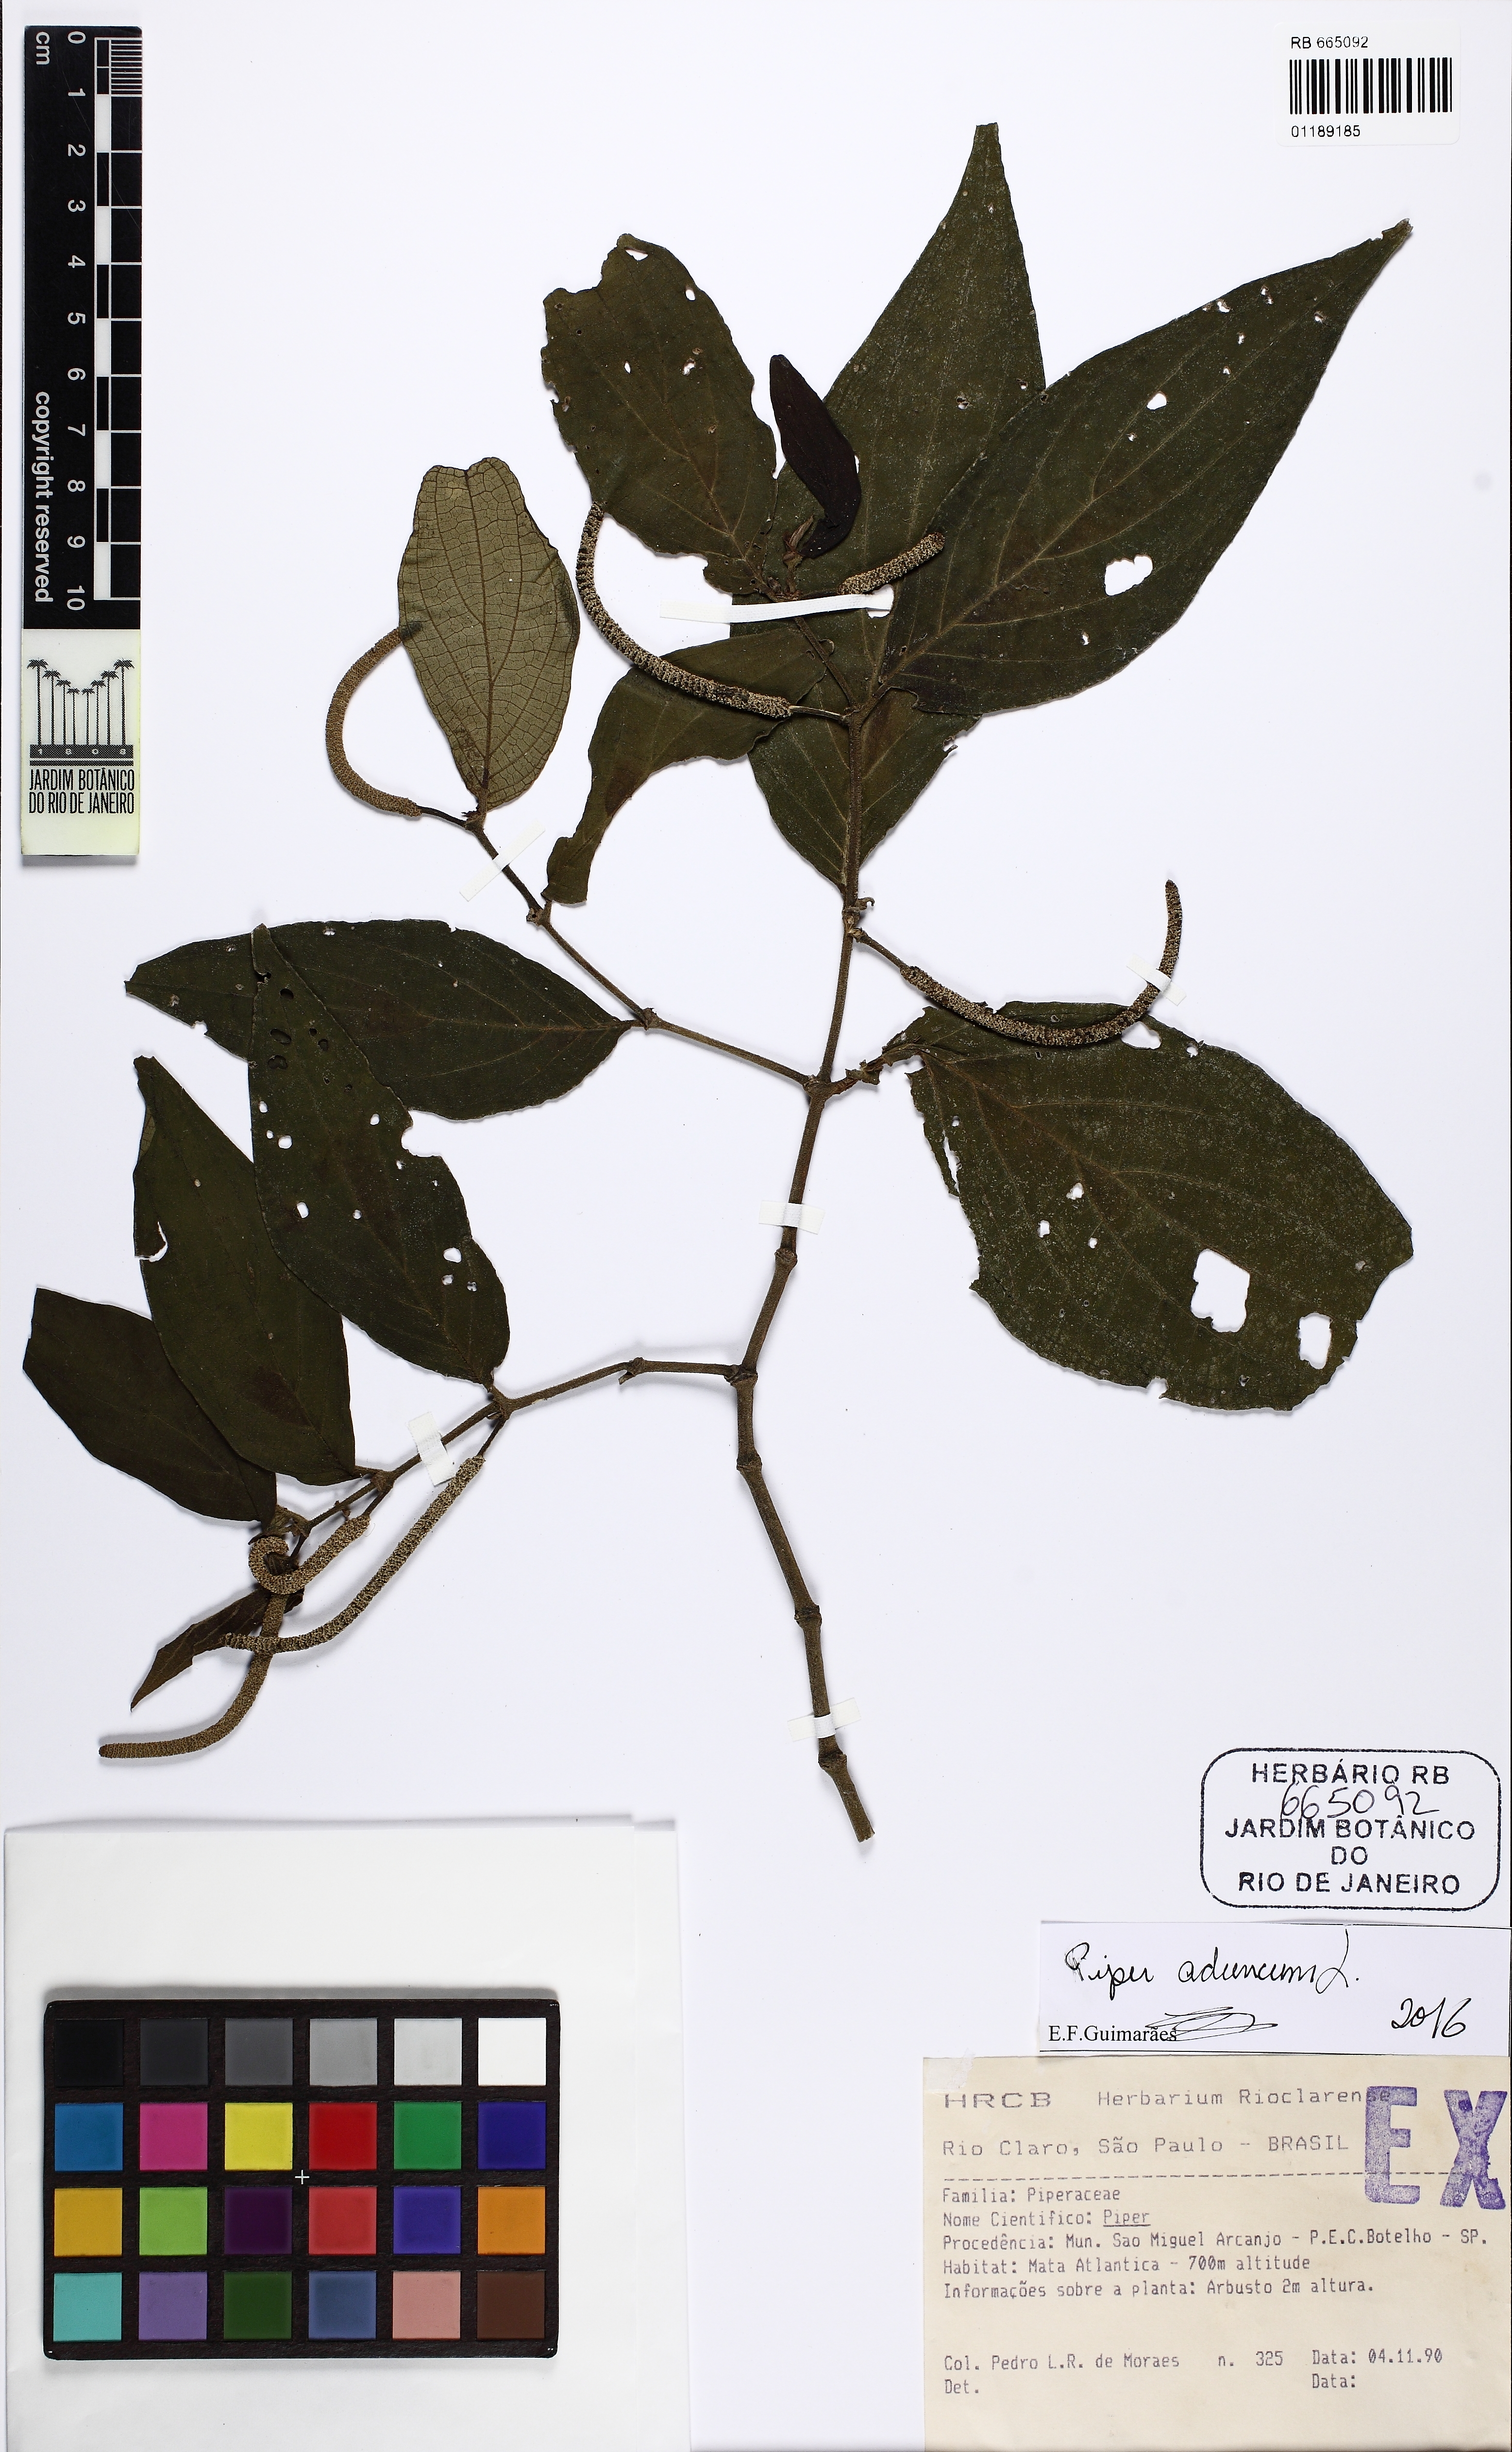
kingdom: Plantae
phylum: Tracheophyta
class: Magnoliopsida
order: Piperales
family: Piperaceae
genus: Piper
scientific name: Piper aduncum
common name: Spiked pepper
